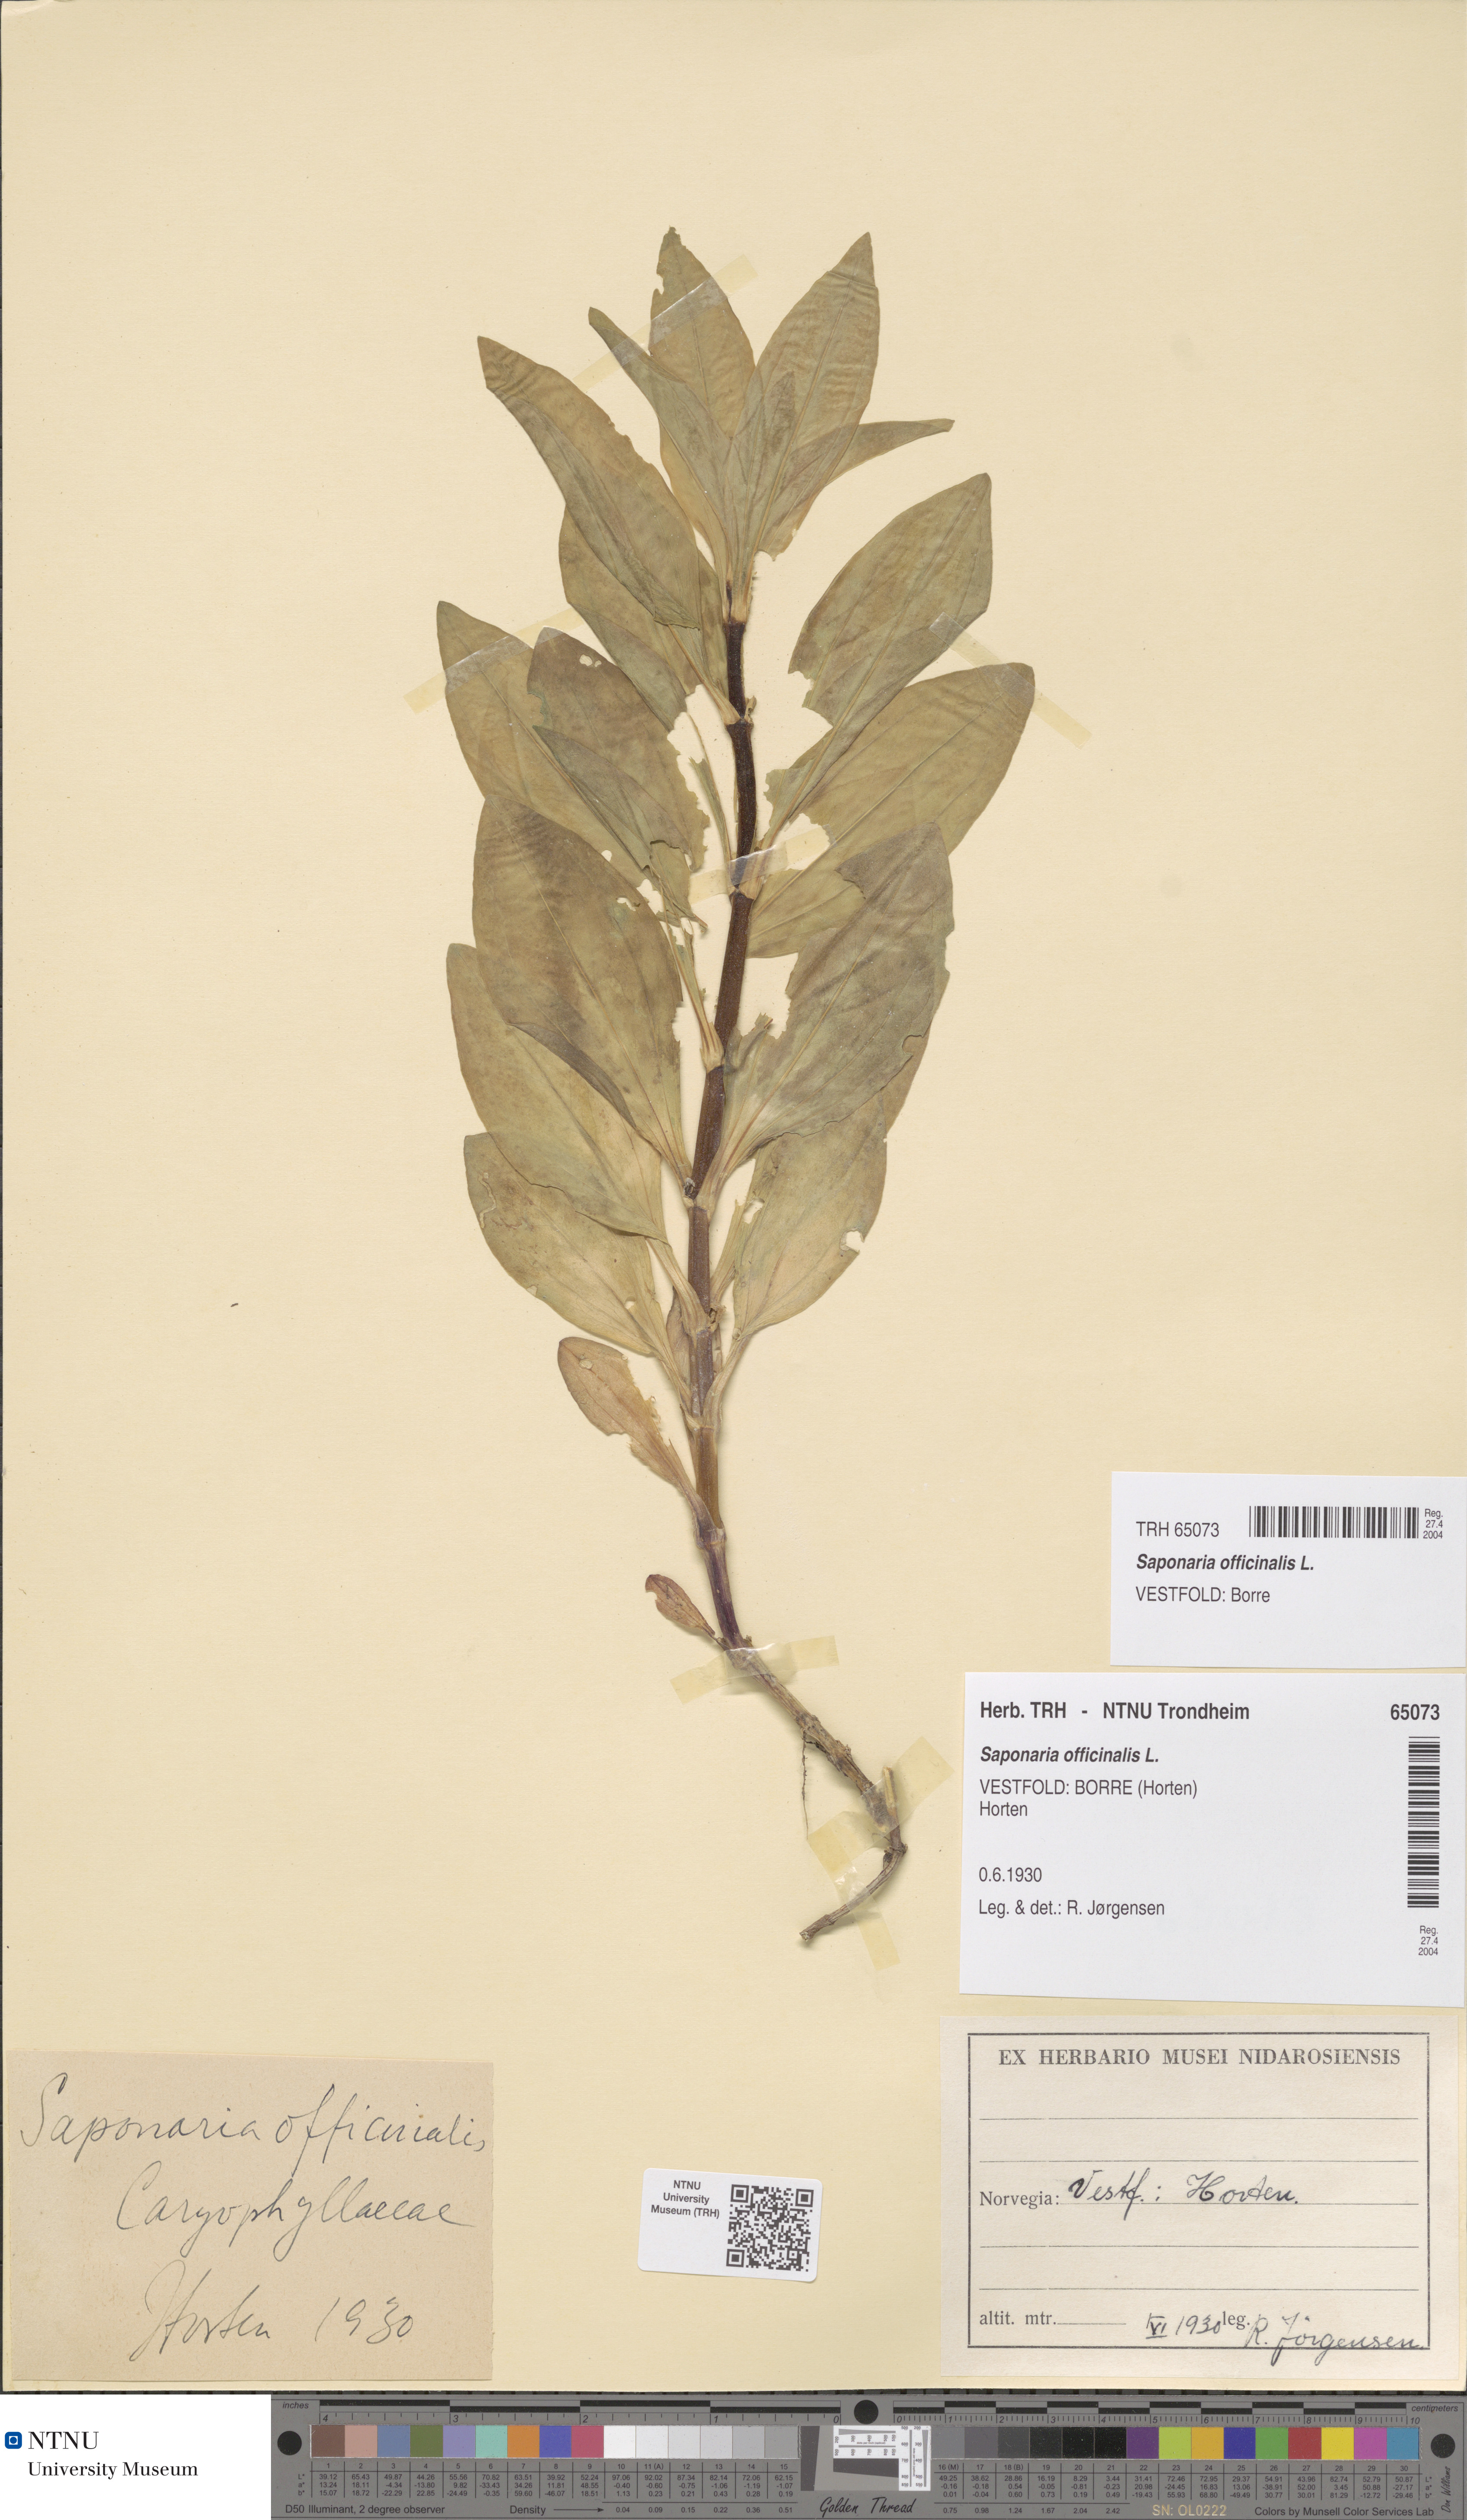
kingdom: Plantae
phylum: Tracheophyta
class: Magnoliopsida
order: Caryophyllales
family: Caryophyllaceae
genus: Saponaria
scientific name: Saponaria officinalis
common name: Soapwort
